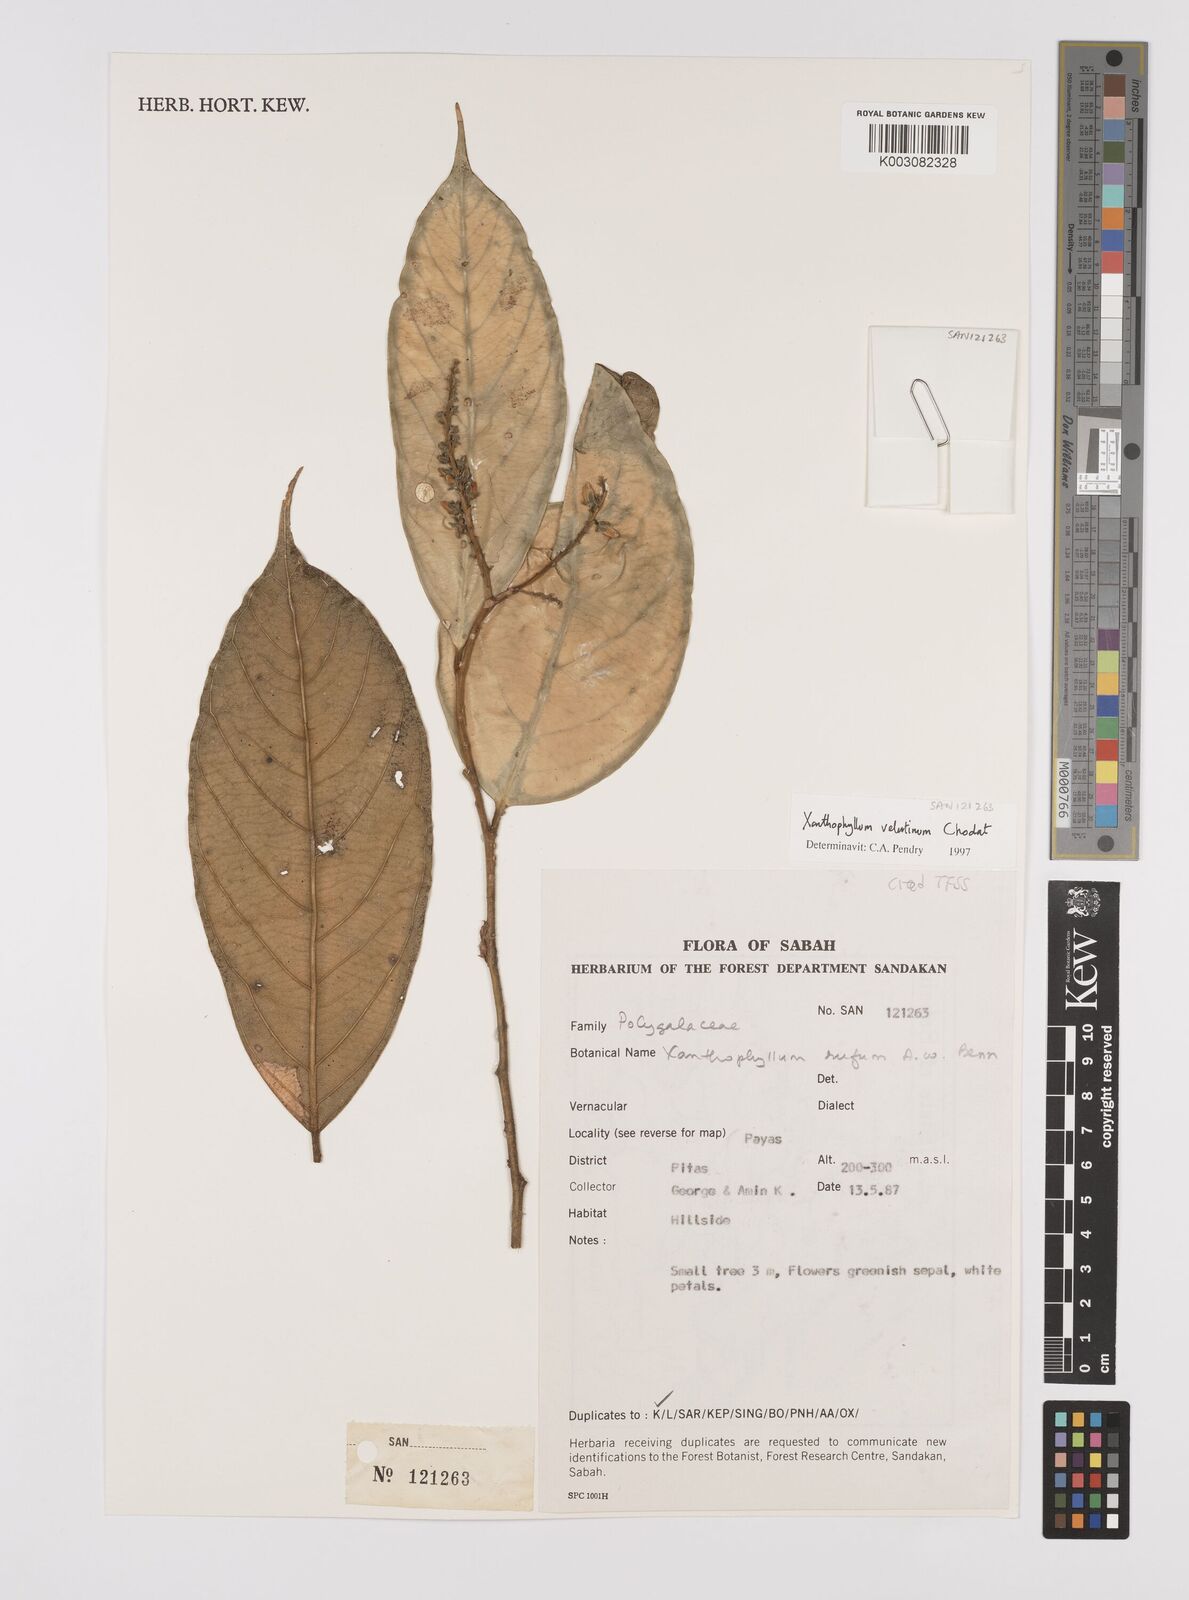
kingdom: Plantae
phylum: Tracheophyta
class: Magnoliopsida
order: Fabales
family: Polygalaceae
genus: Xanthophyllum
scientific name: Xanthophyllum velutinum
